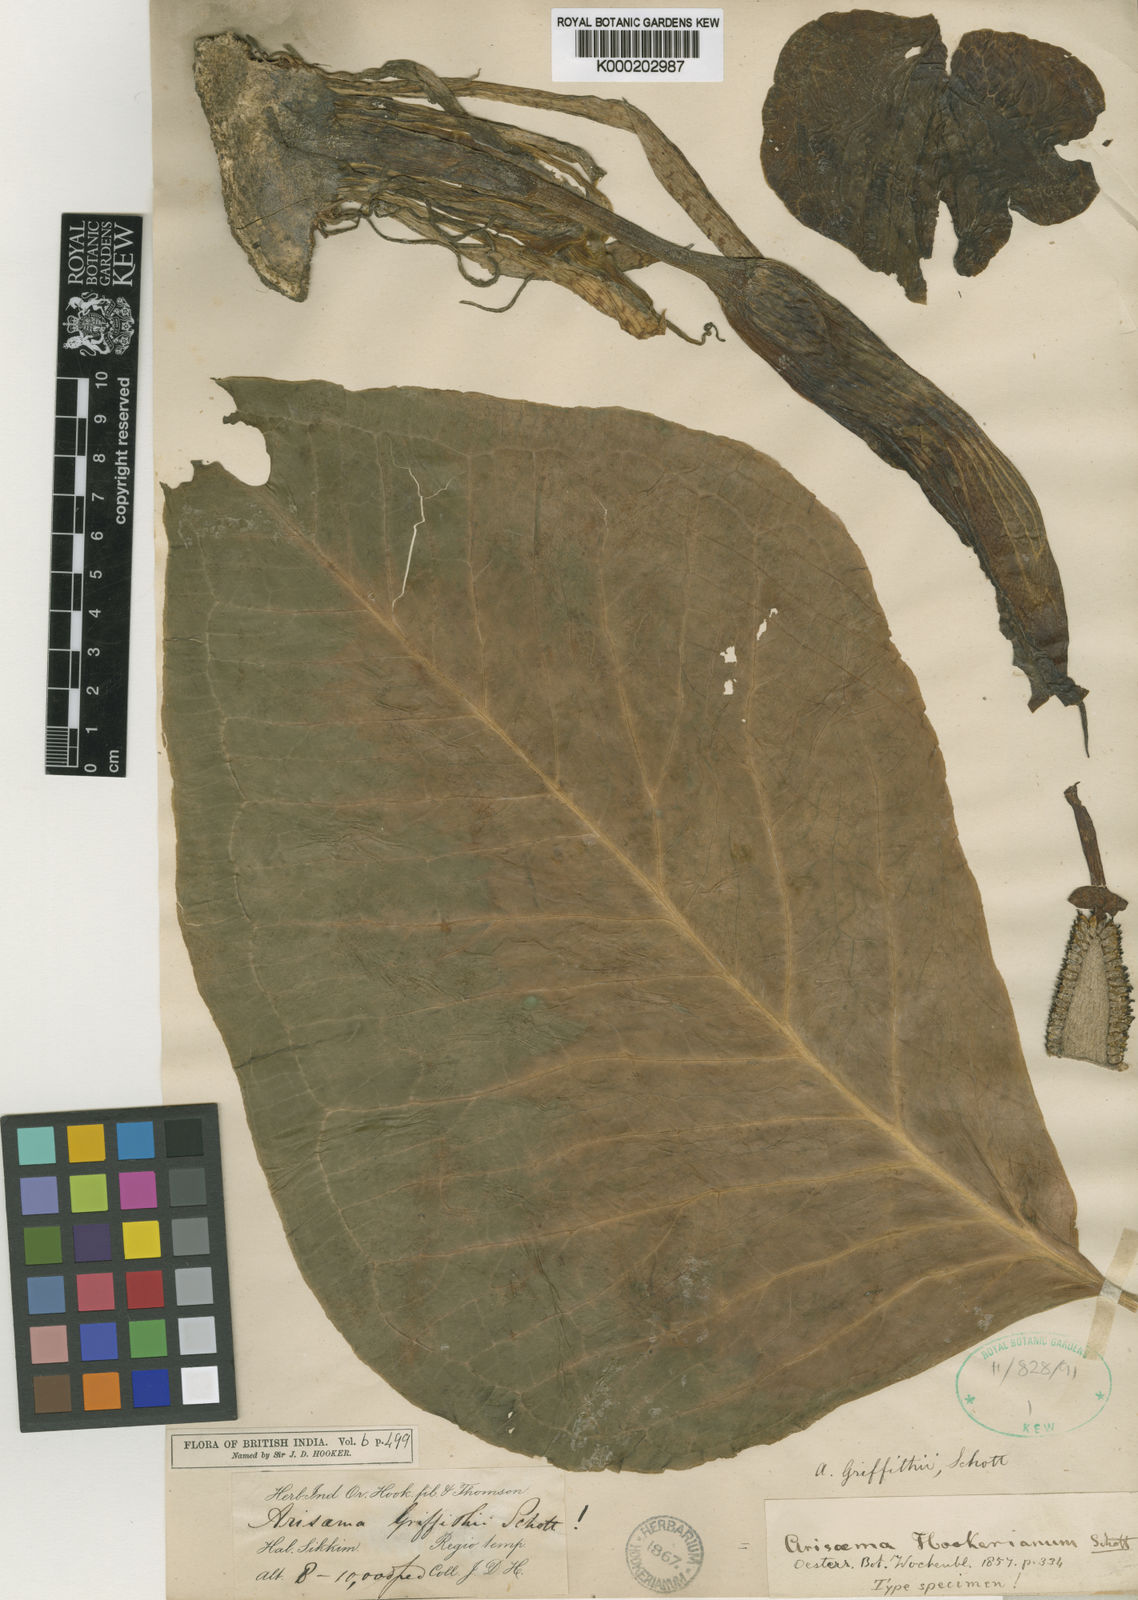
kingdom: Plantae
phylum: Tracheophyta
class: Liliopsida
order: Alismatales
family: Araceae
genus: Arisaema
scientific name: Arisaema griffithii
